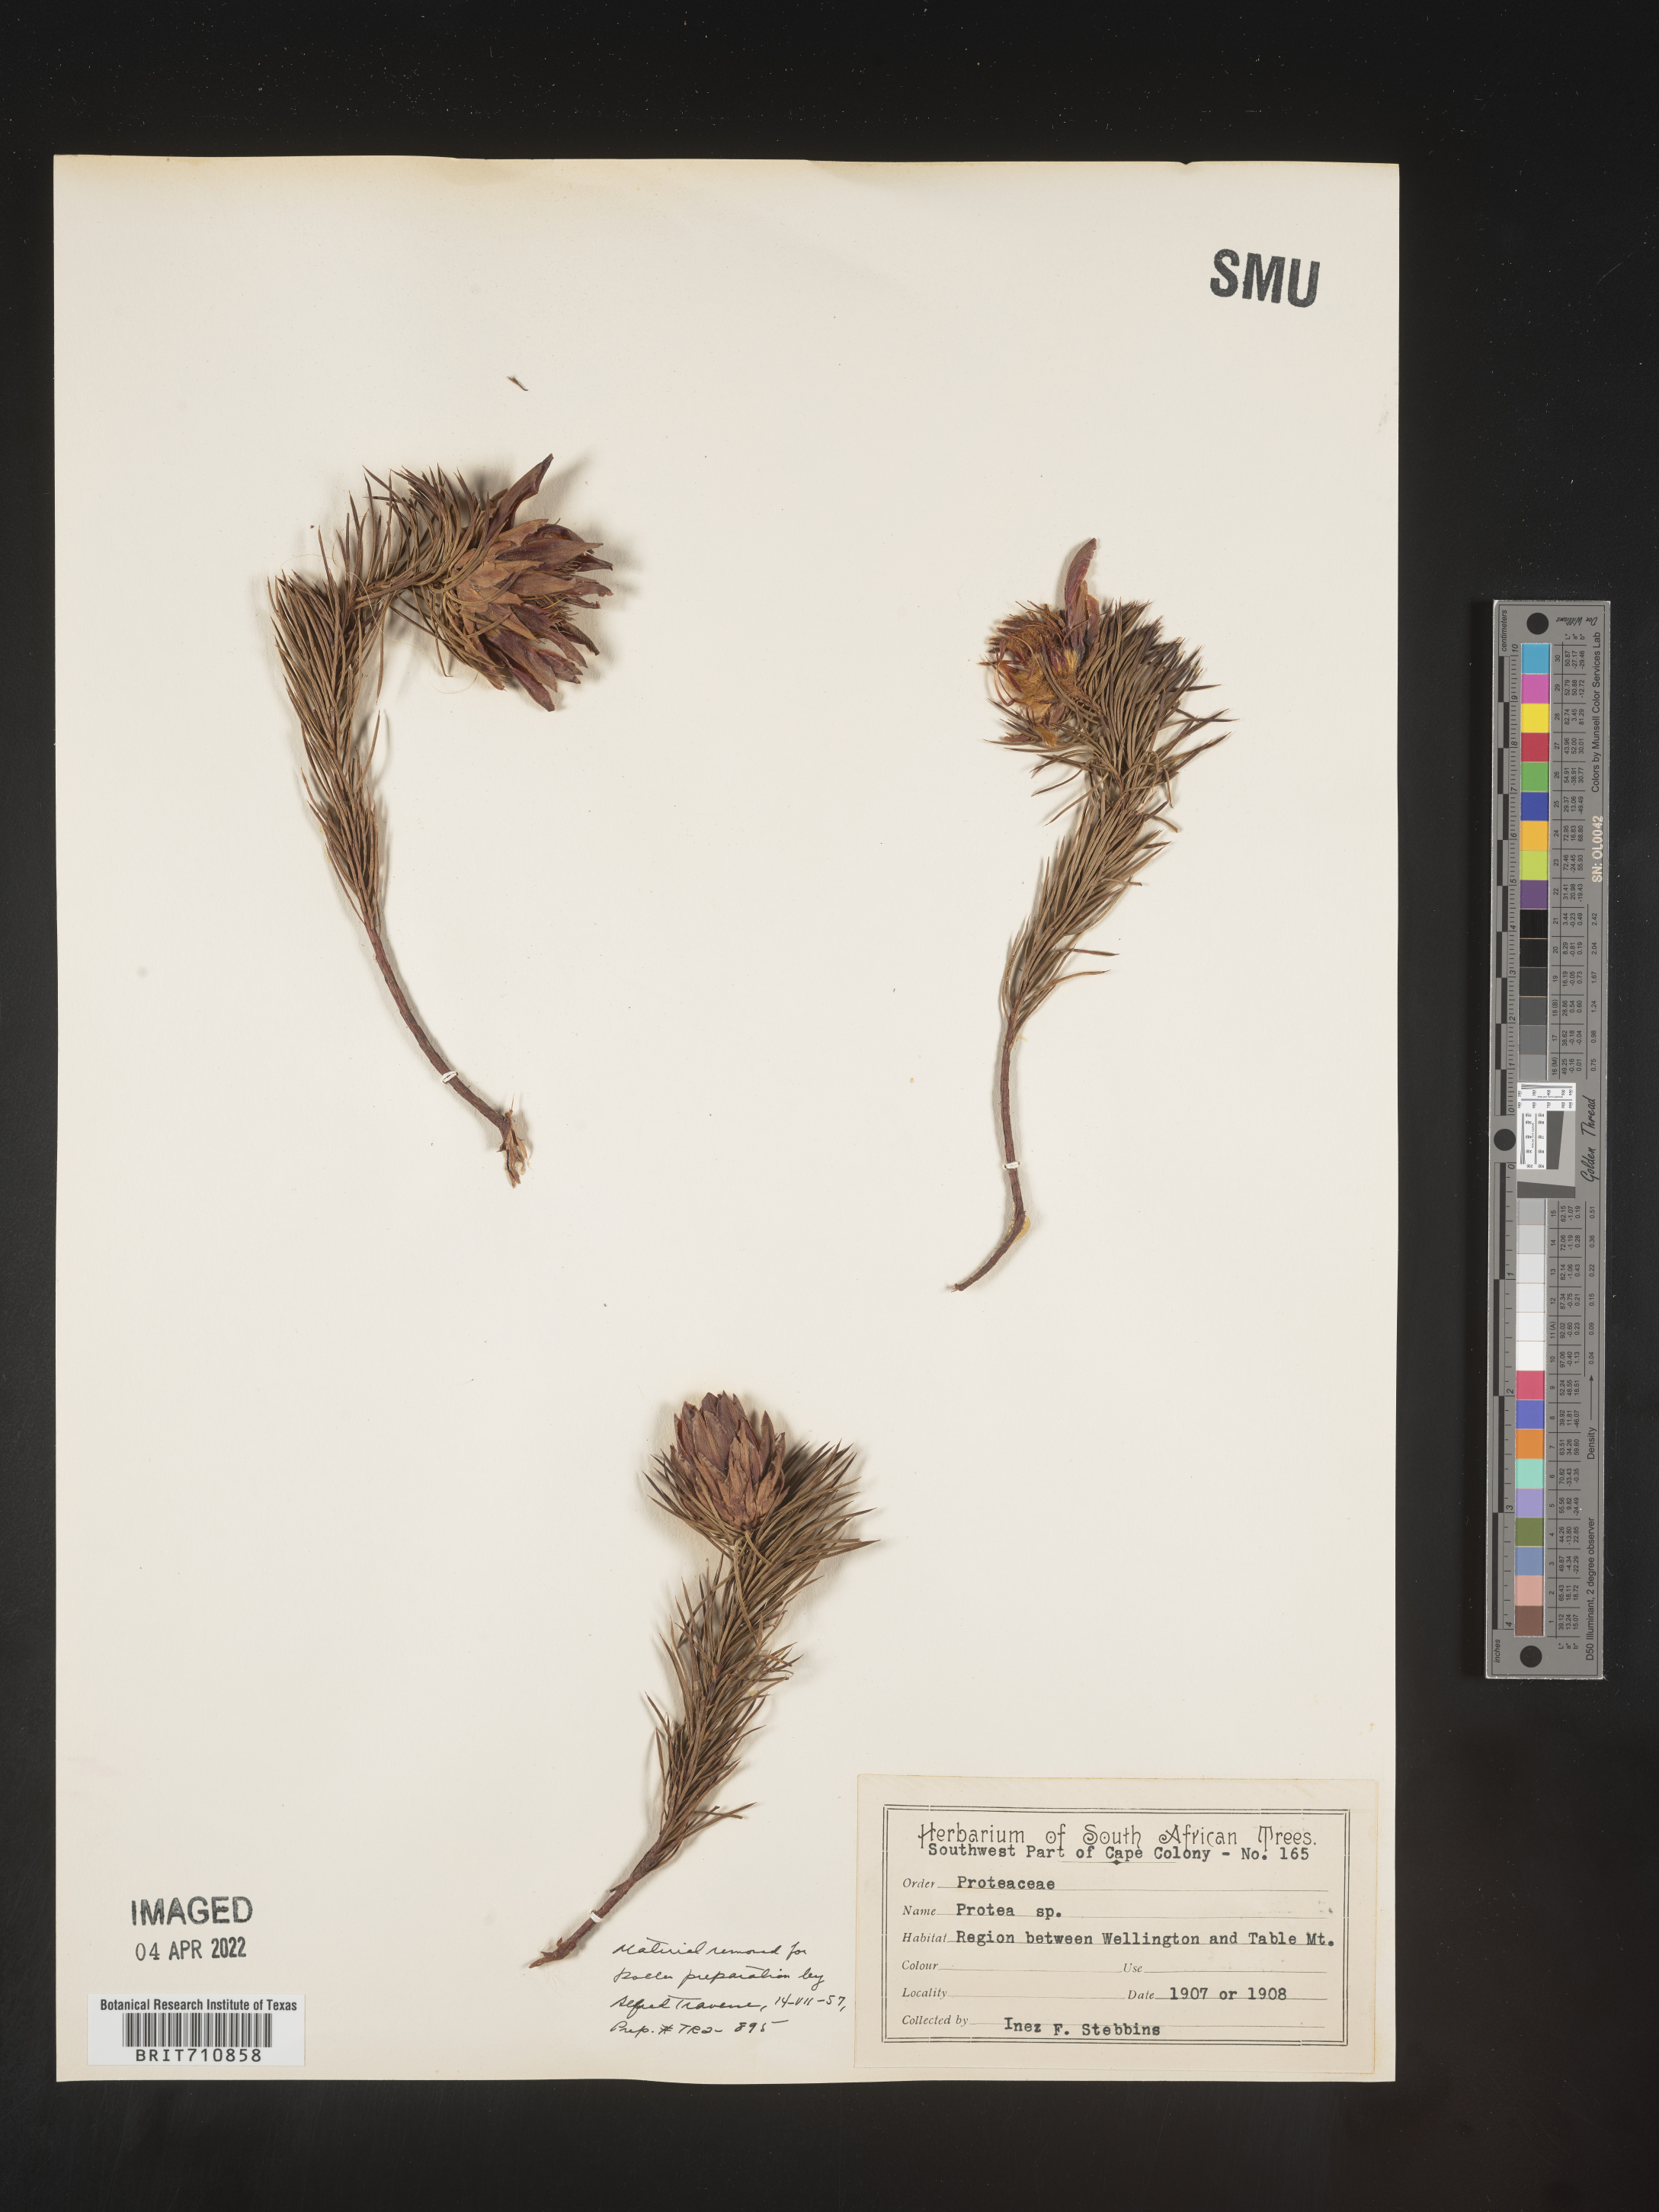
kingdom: Plantae
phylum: Tracheophyta
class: Magnoliopsida
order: Proteales
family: Proteaceae
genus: Protea
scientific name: Protea
